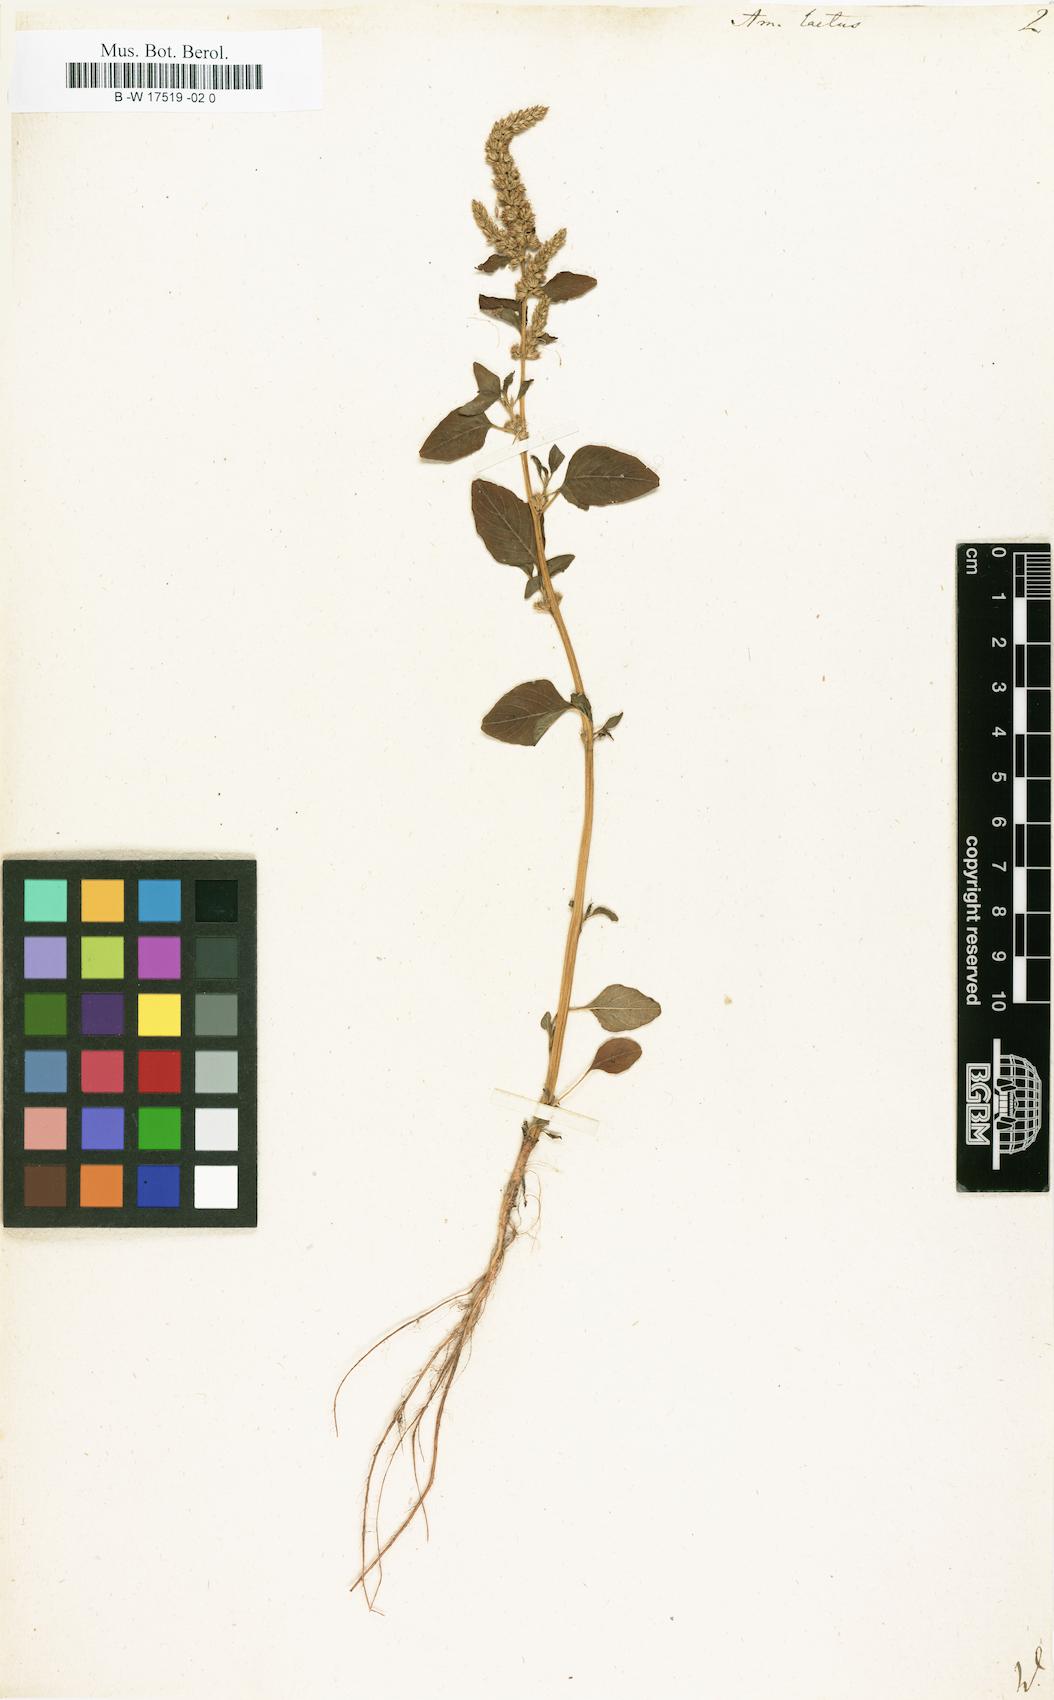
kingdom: Plantae
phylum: Tracheophyta
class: Magnoliopsida
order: Caryophyllales
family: Amaranthaceae
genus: Amaranthus
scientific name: Amaranthus hybridus
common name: Green amaranth
